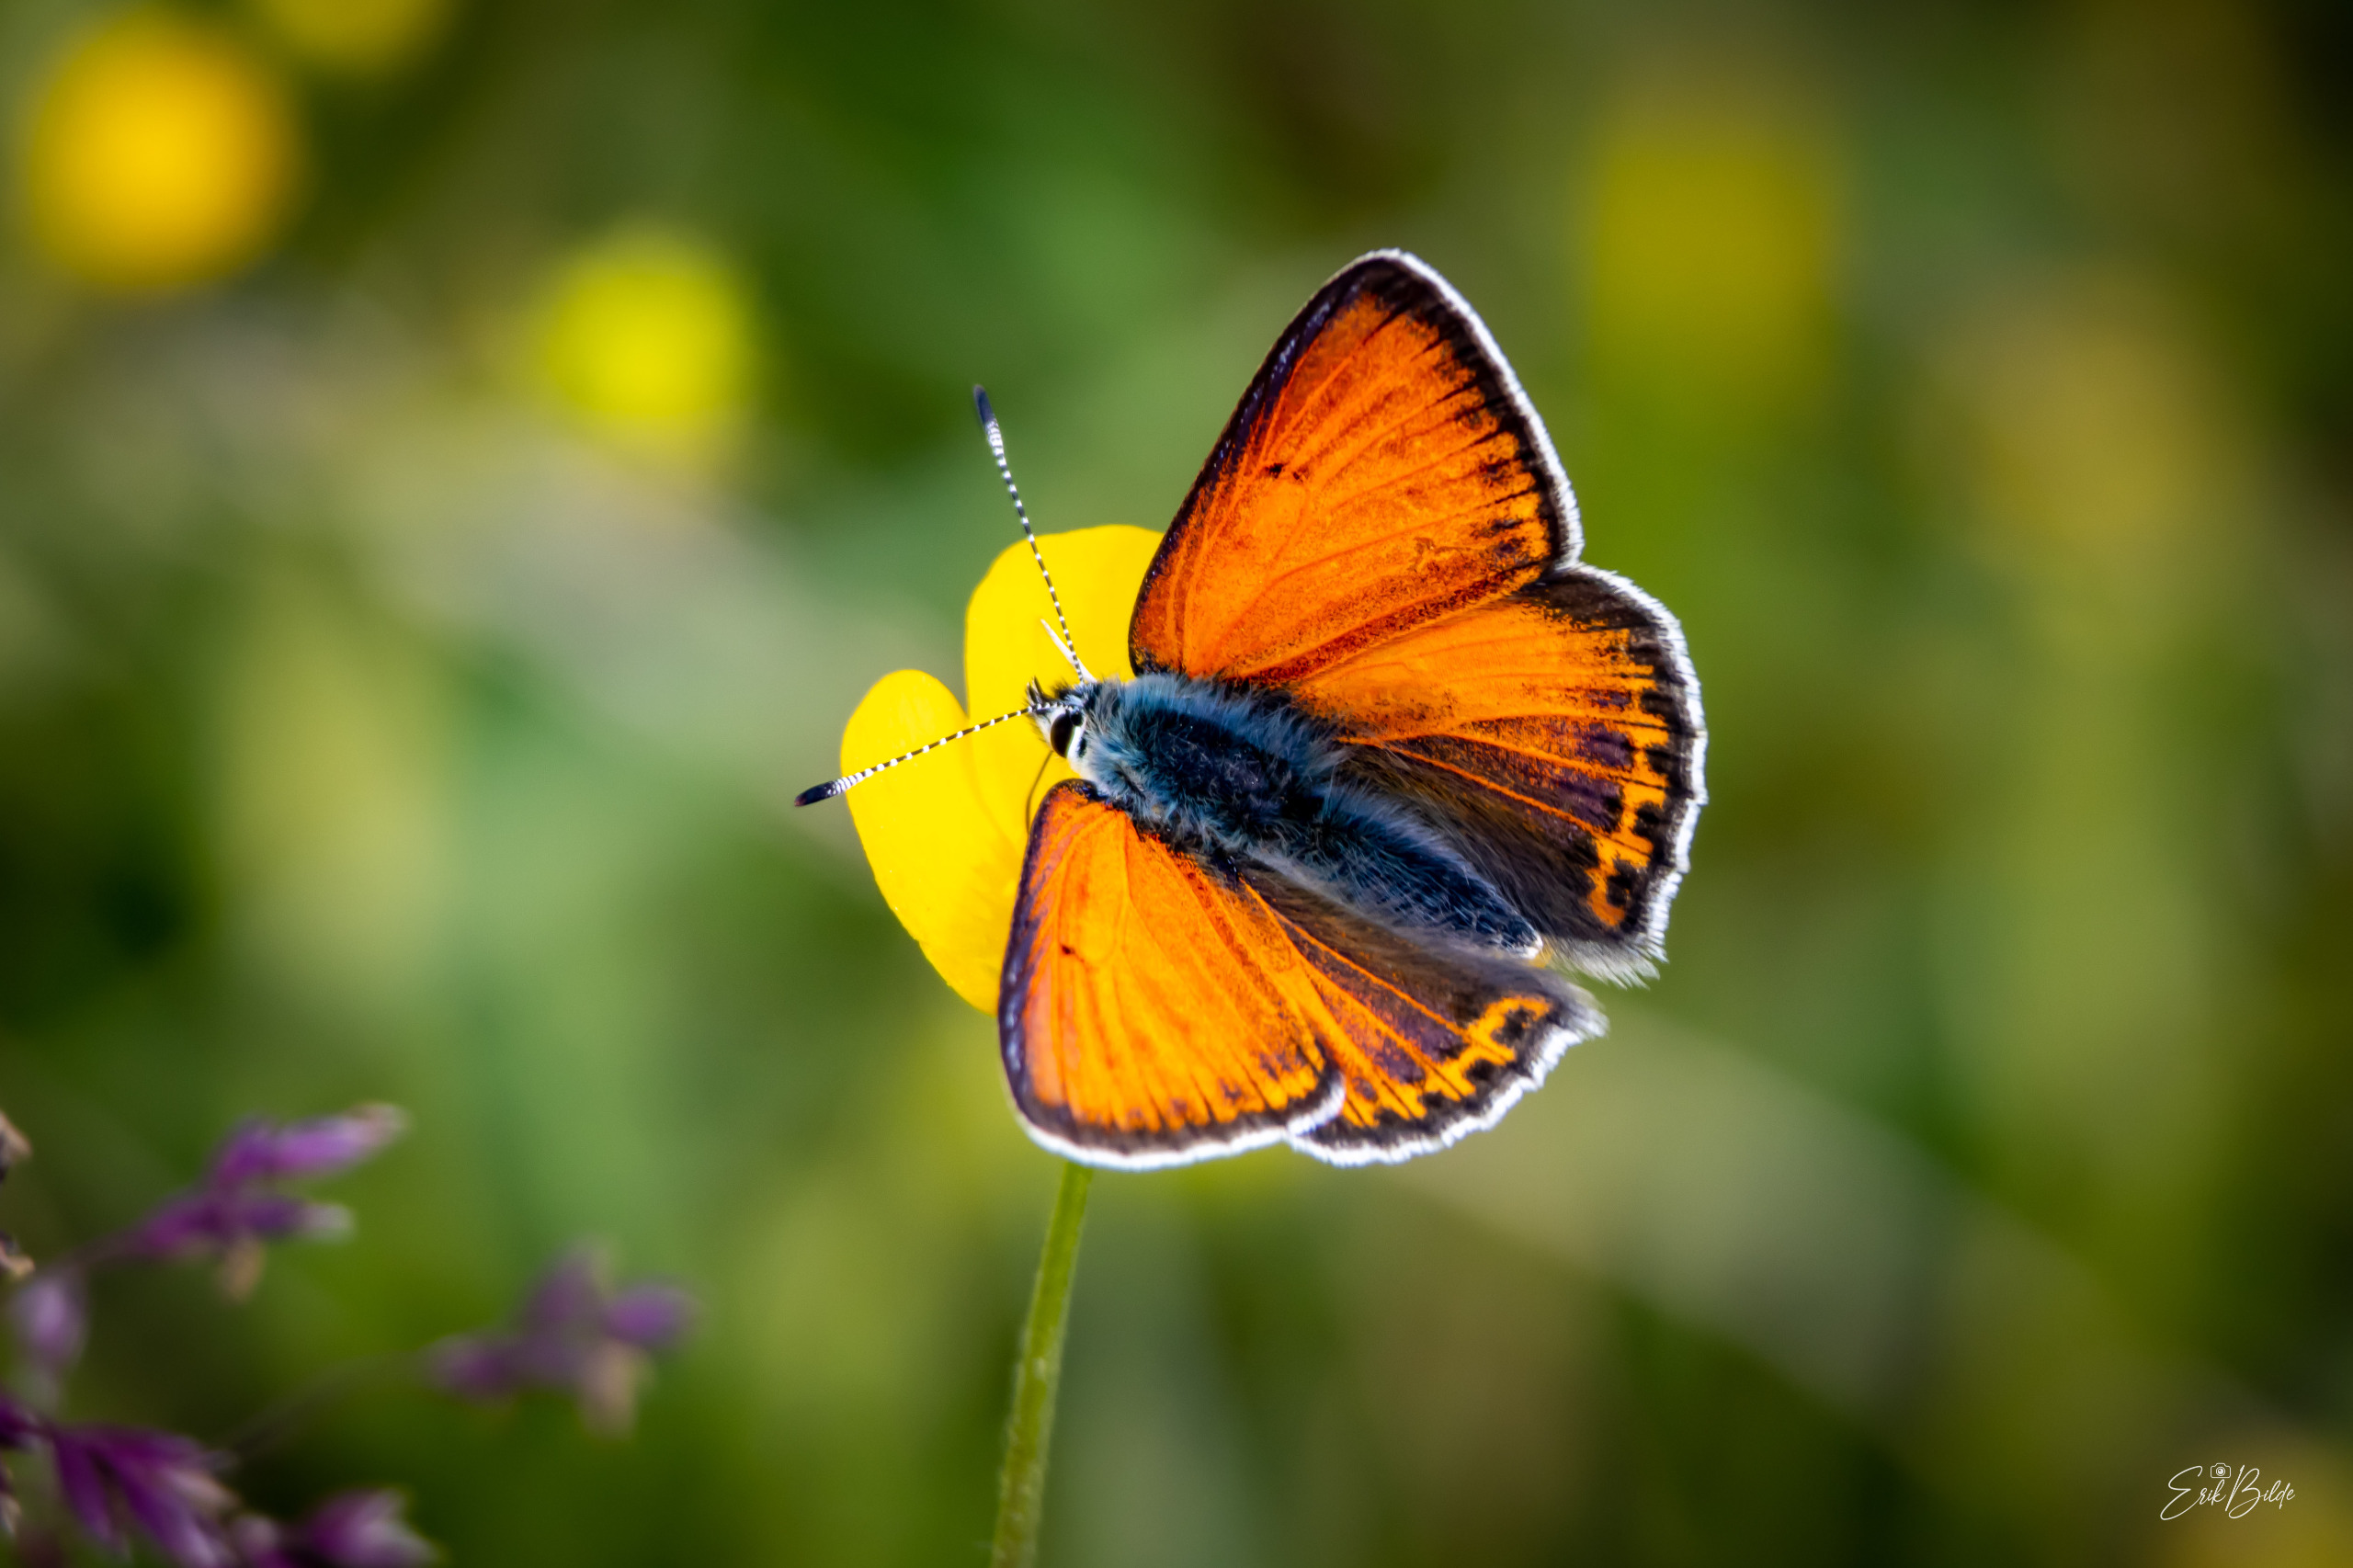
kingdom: Animalia
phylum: Arthropoda
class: Insecta
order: Lepidoptera
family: Lycaenidae
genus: Palaeochrysophanus
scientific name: Palaeochrysophanus hippothoe
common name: Violetrandet ildfugl
